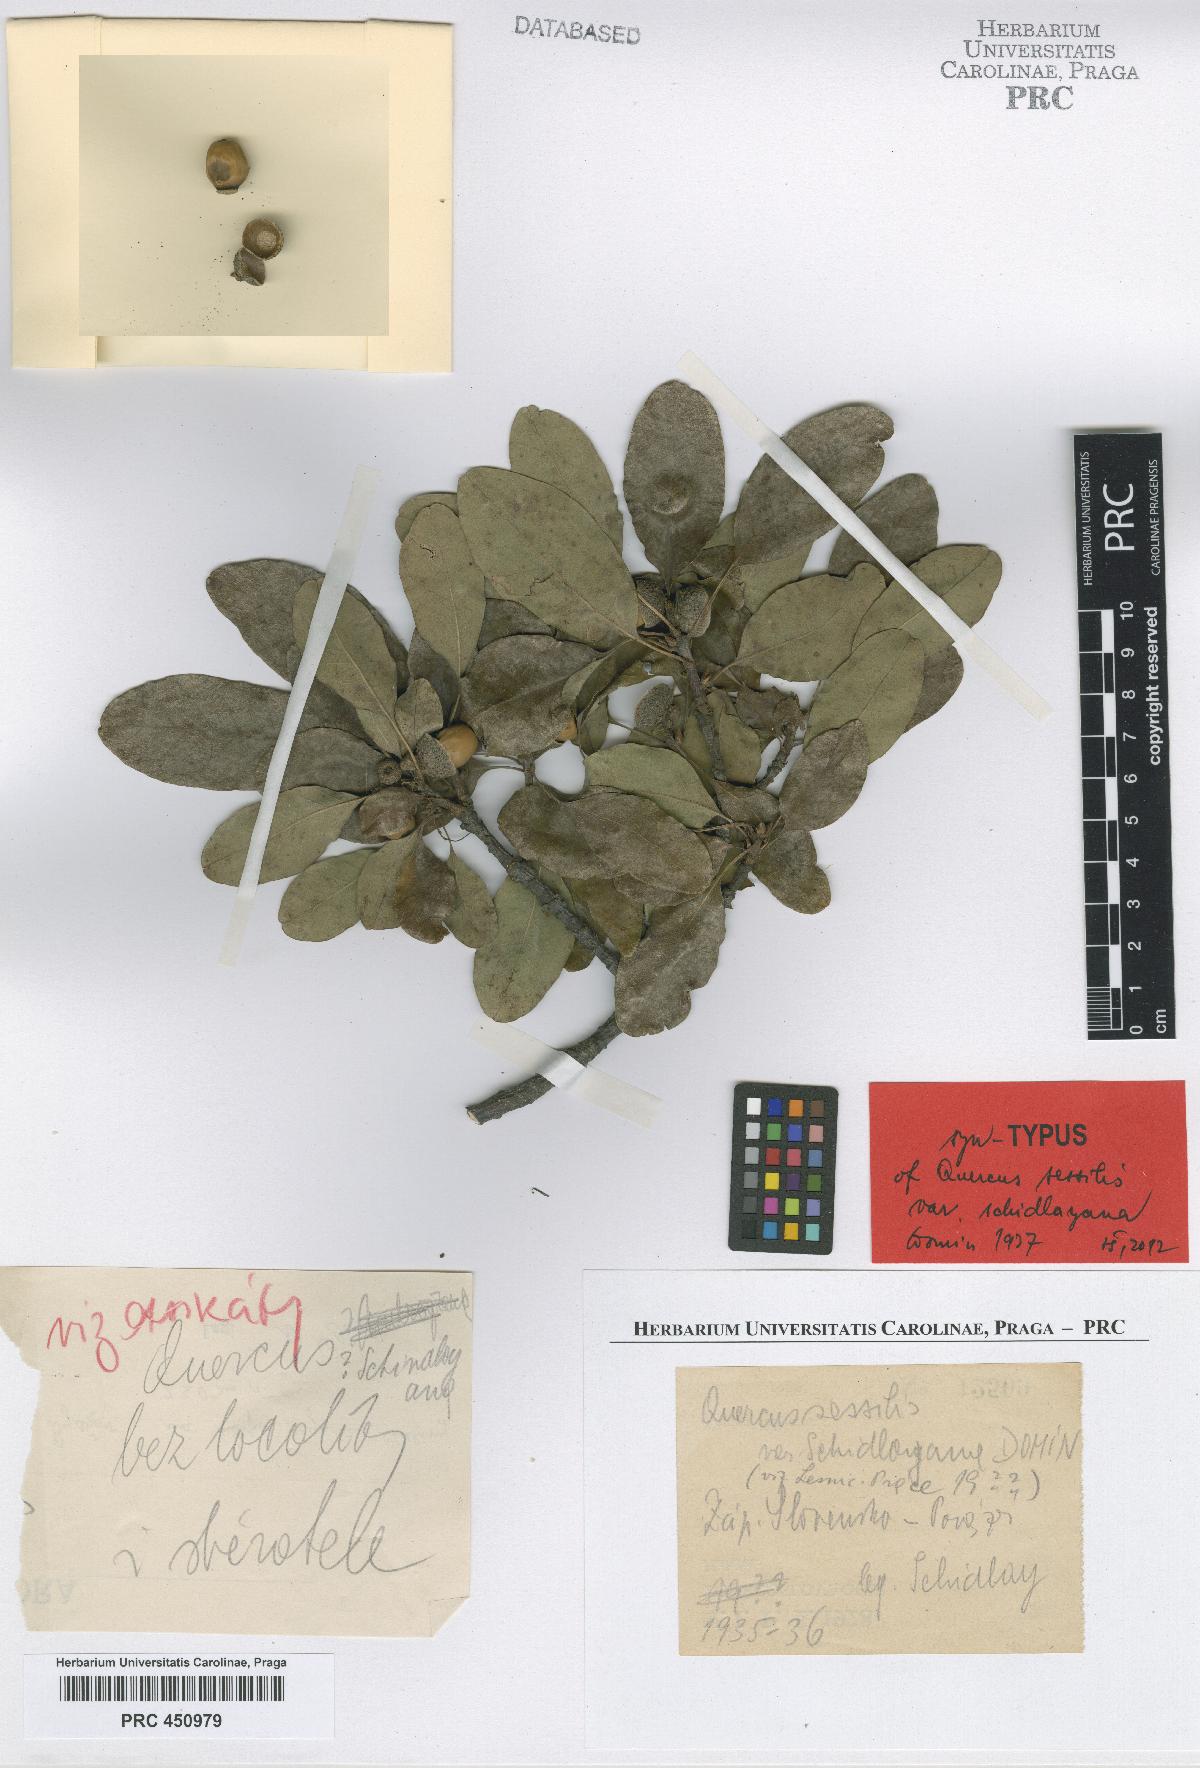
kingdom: Plantae
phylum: Tracheophyta
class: Magnoliopsida
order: Fagales
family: Fagaceae
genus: Quercus
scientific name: Quercus petraea
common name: Sessile oak
